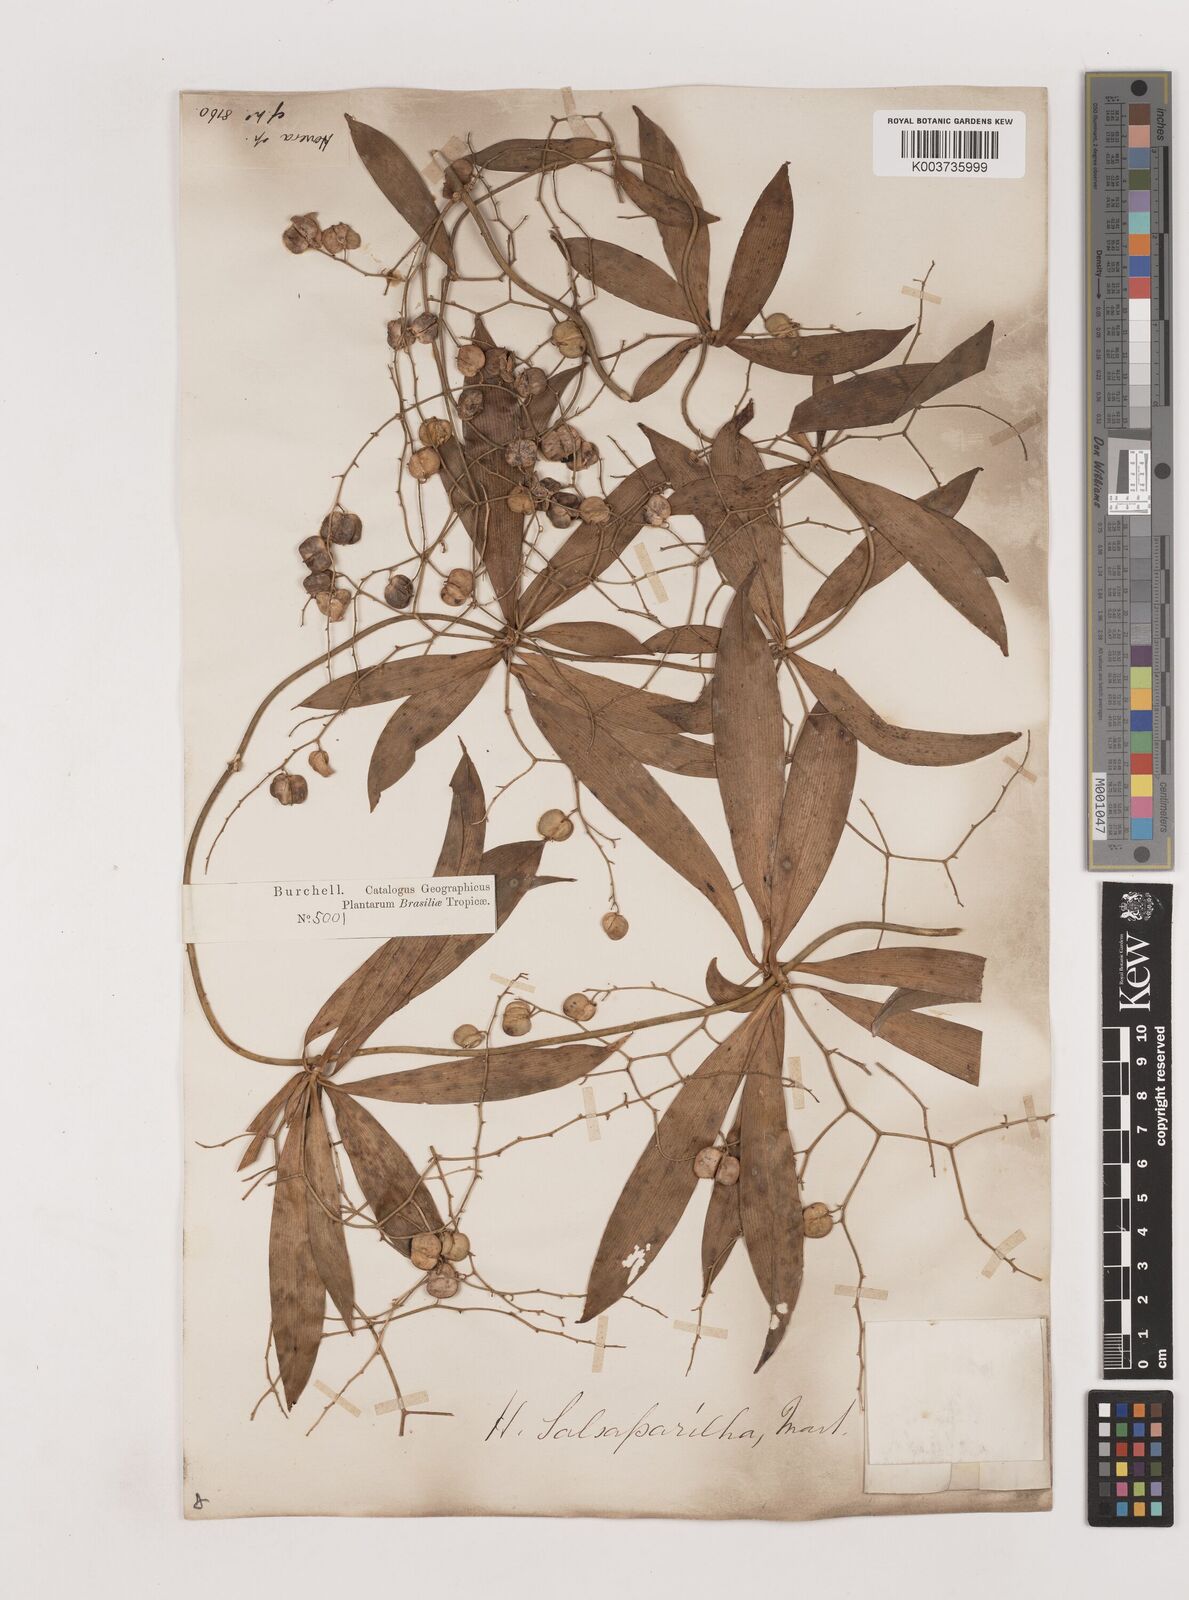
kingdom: Plantae
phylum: Tracheophyta
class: Liliopsida
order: Asparagales
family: Asparagaceae
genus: Herreria
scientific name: Herreria salsaparilha
